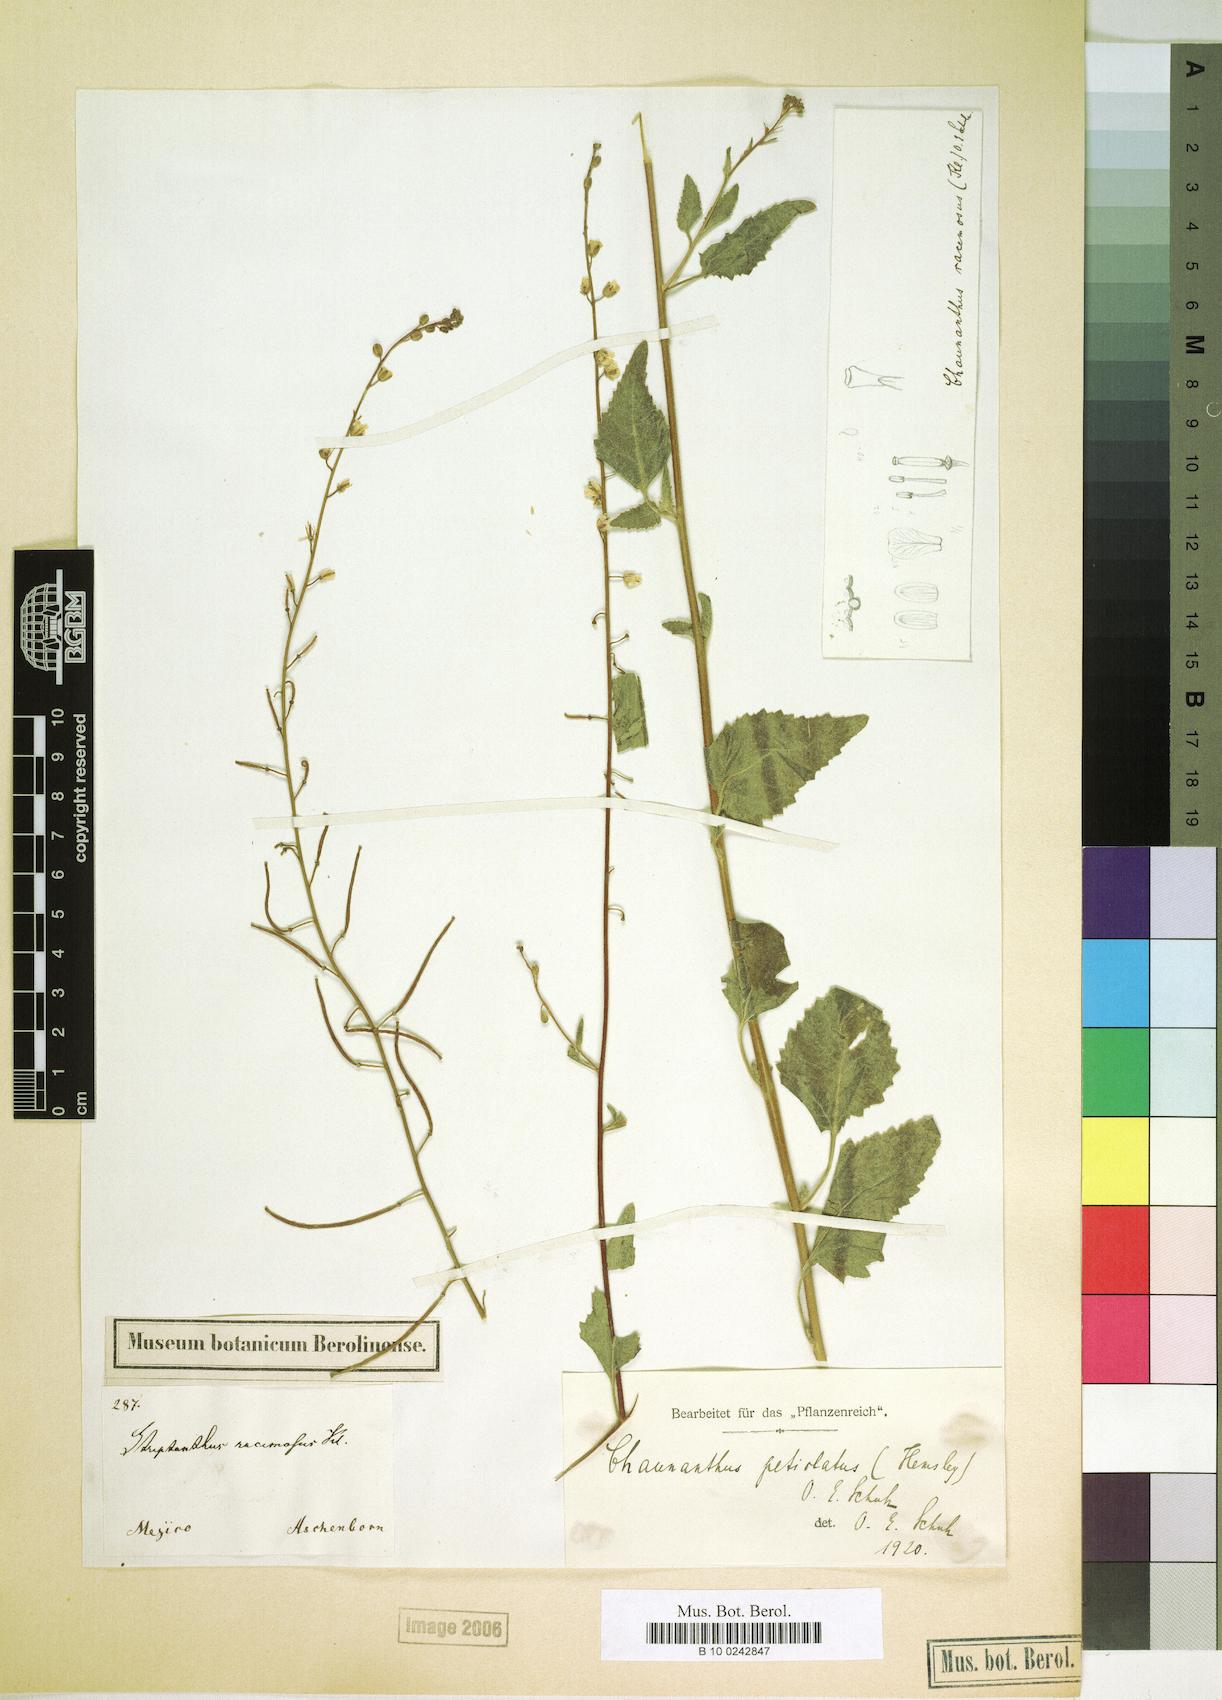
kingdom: Plantae
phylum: Tracheophyta
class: Magnoliopsida
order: Brassicales
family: Brassicaceae
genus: Chaunanthus
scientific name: Chaunanthus petiolatus
